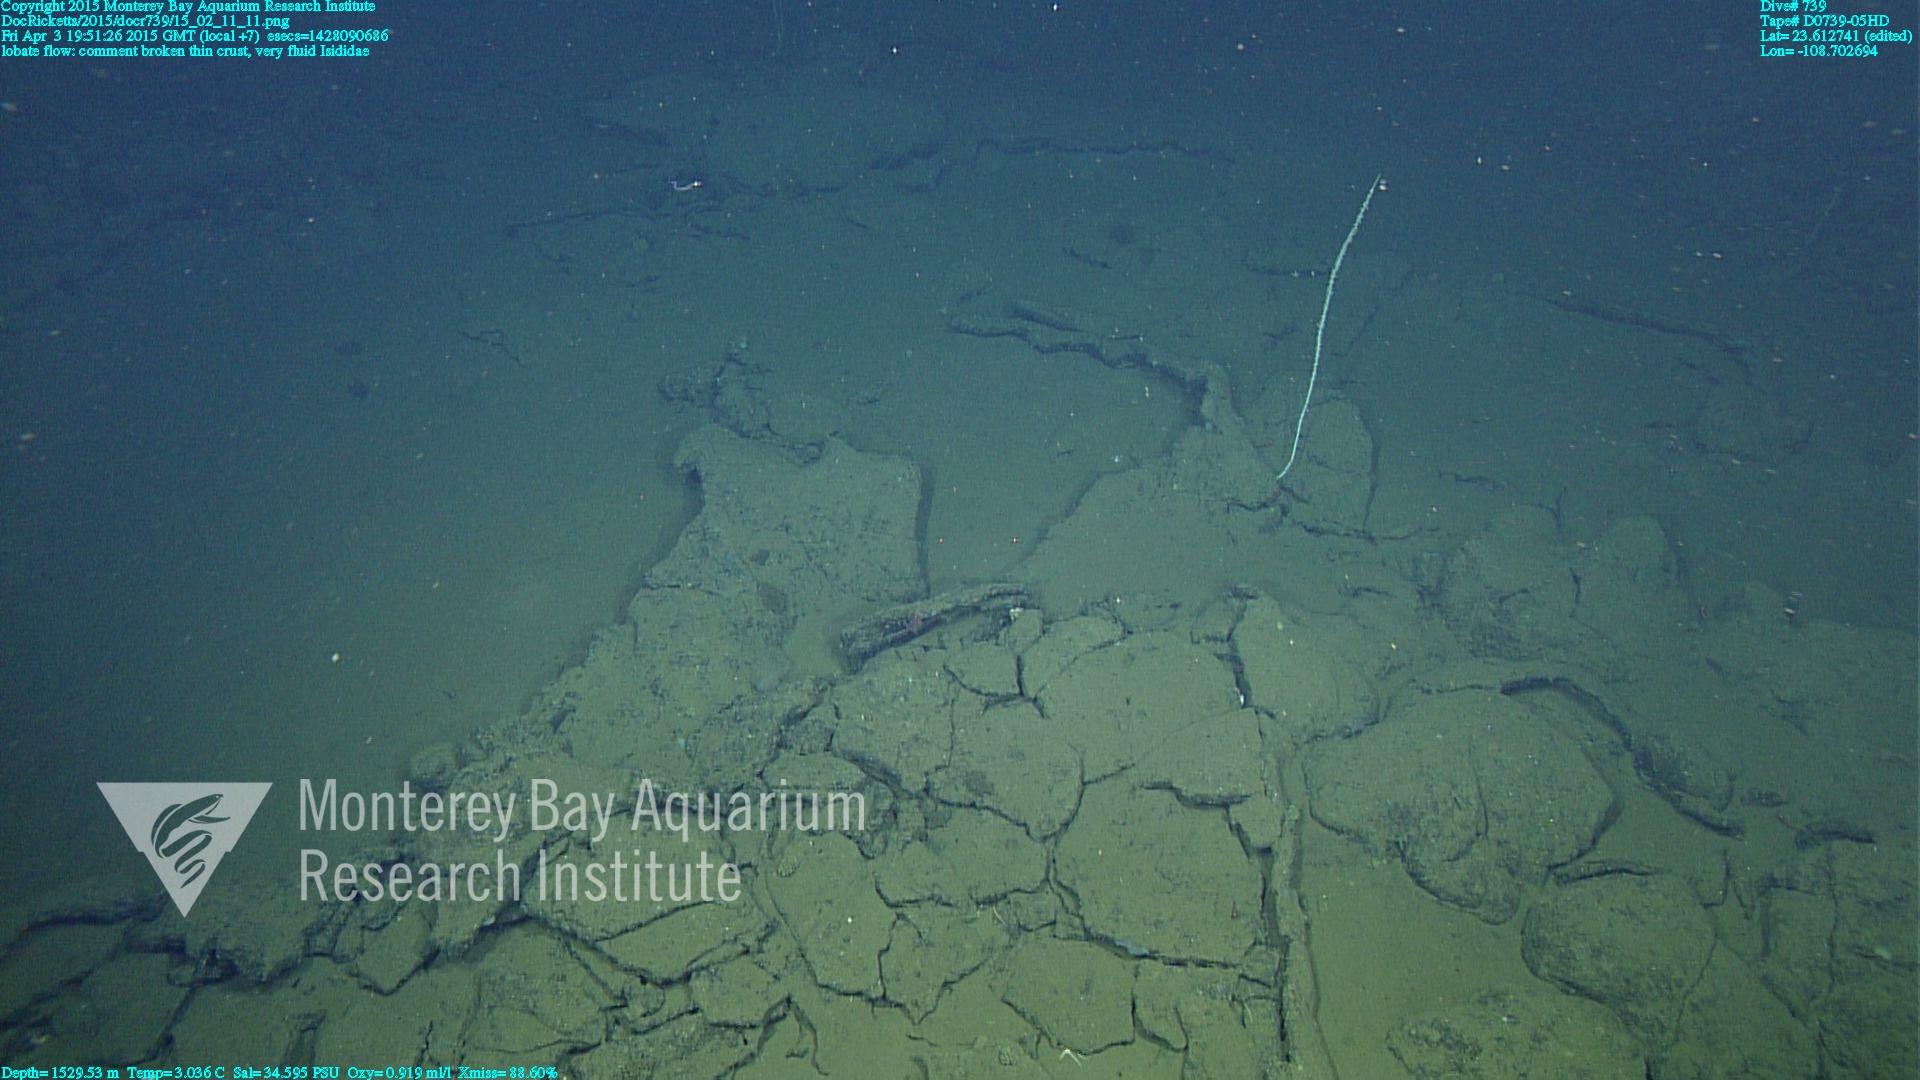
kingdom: Animalia
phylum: Cnidaria
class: Anthozoa
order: Scleralcyonacea
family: Keratoisididae
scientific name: Keratoisididae
